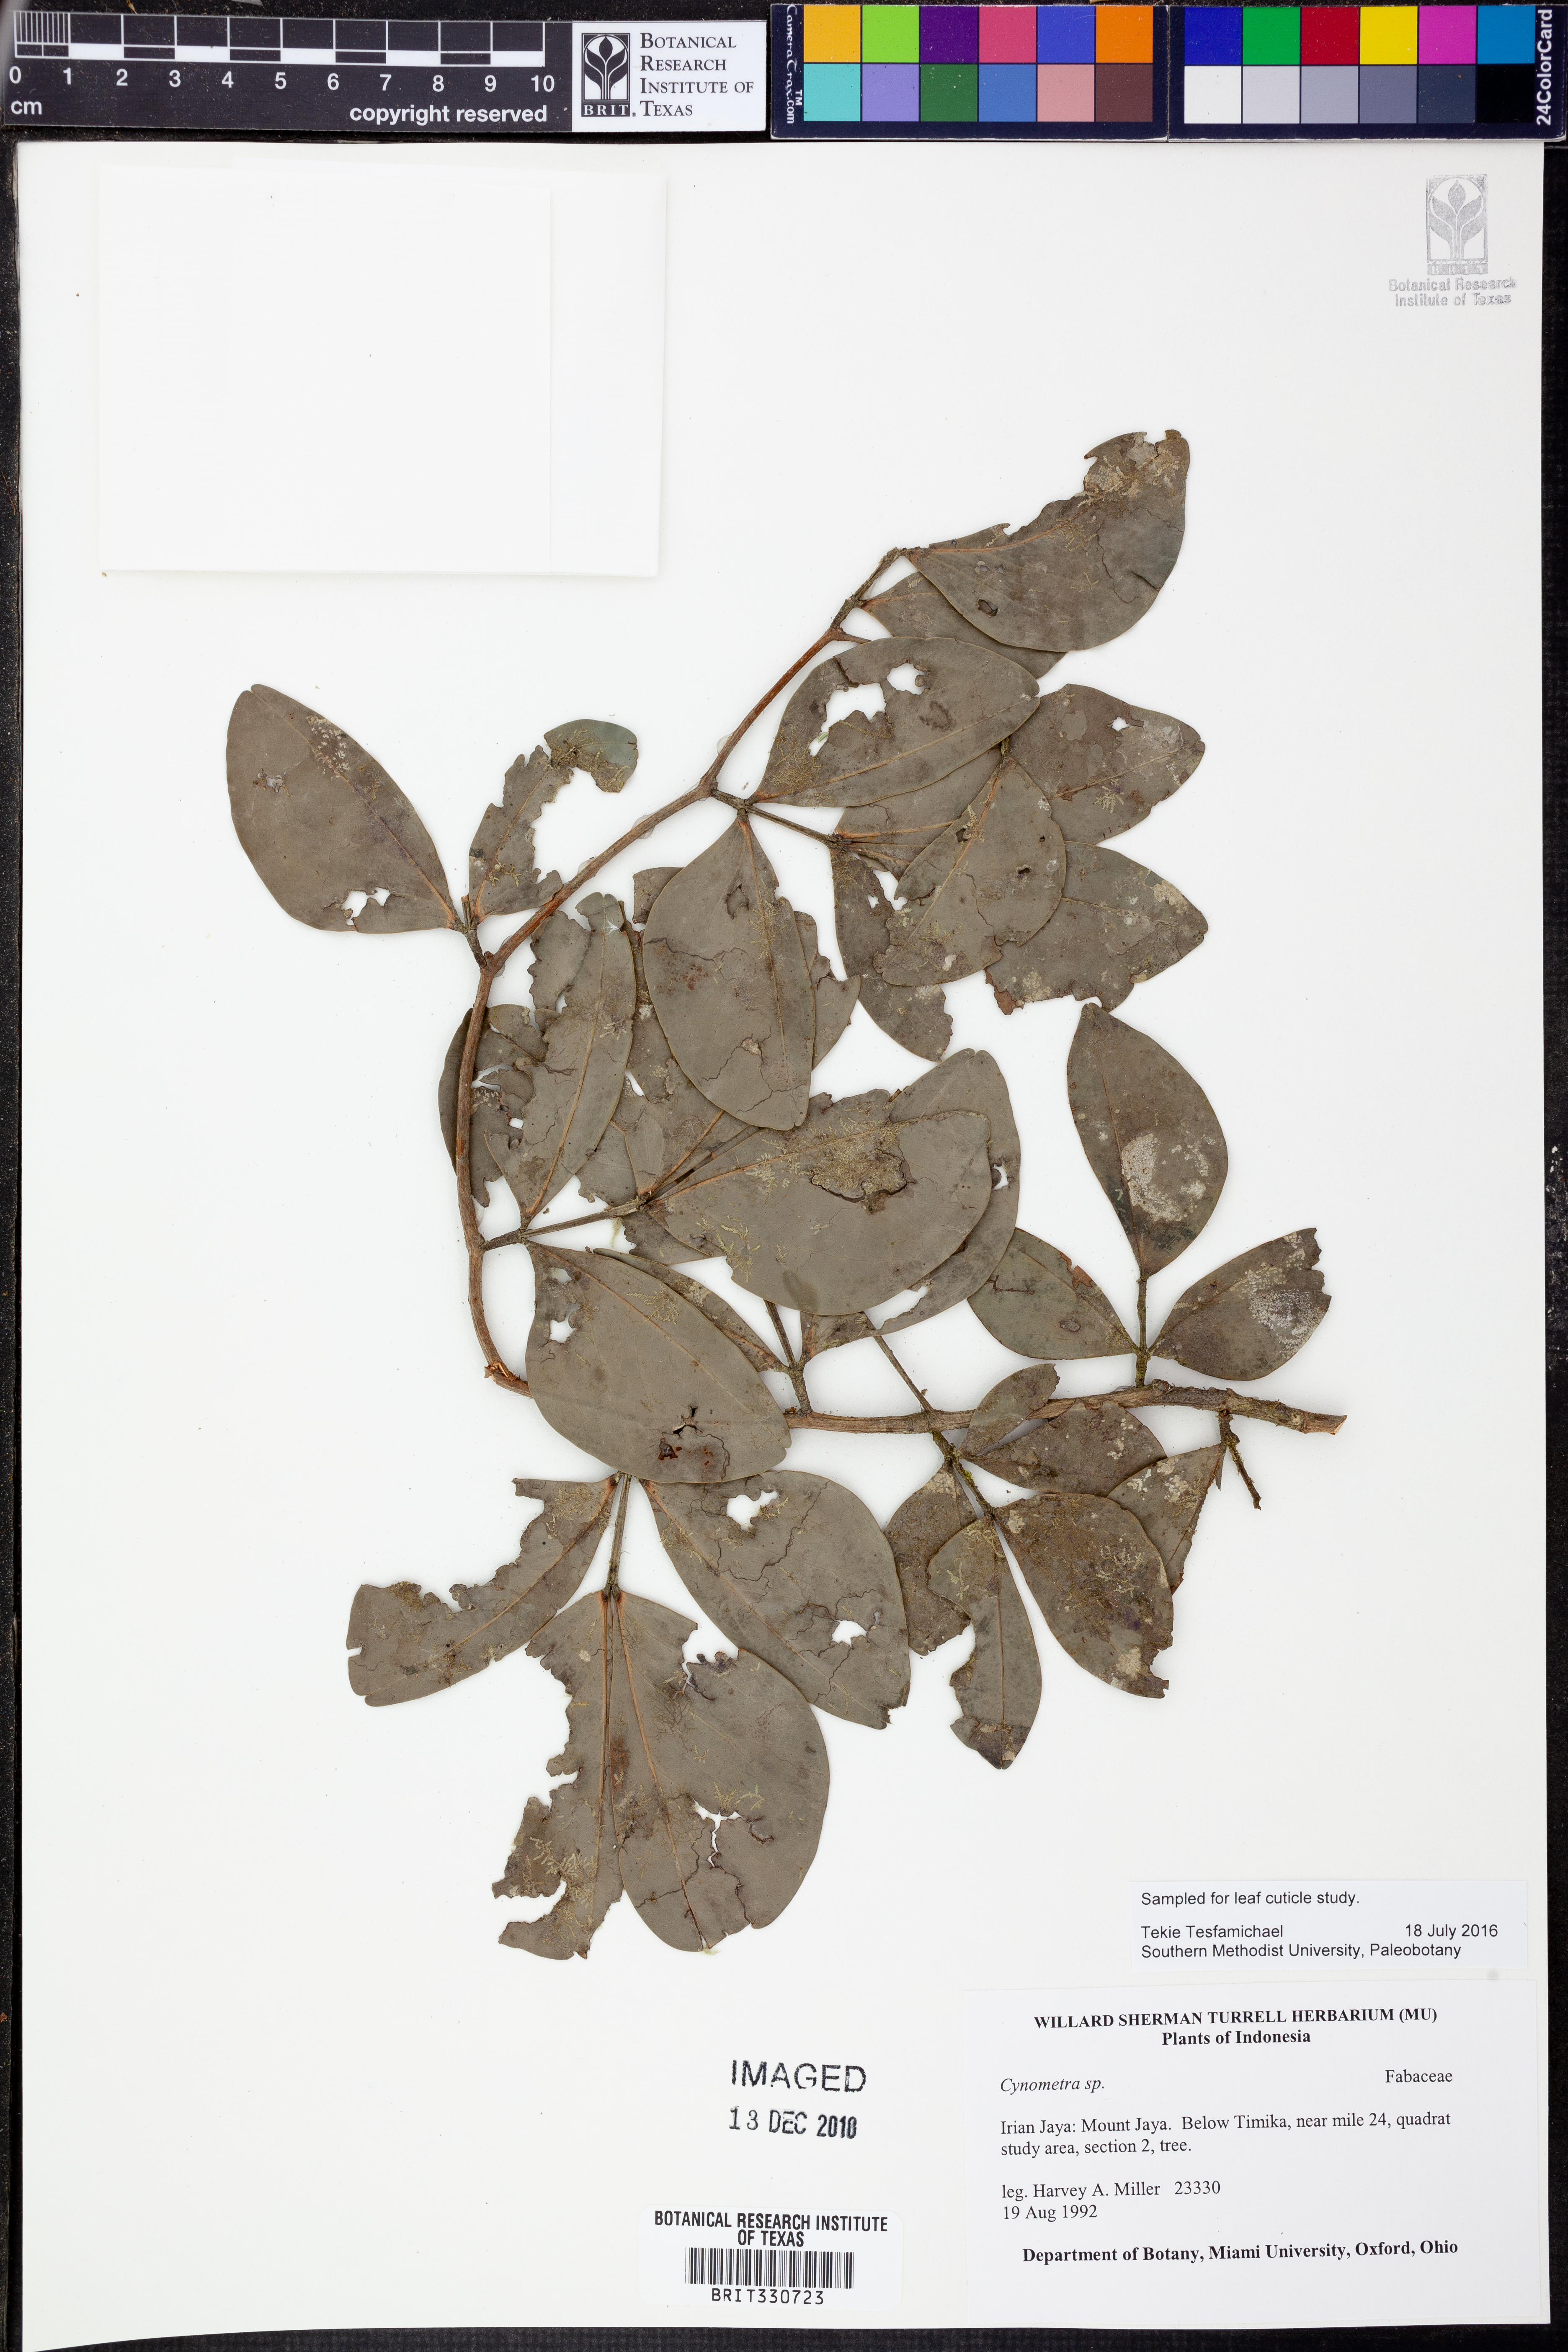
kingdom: Plantae
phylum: Tracheophyta
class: Magnoliopsida
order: Fabales
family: Fabaceae
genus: Cynometra
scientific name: Cynometra
